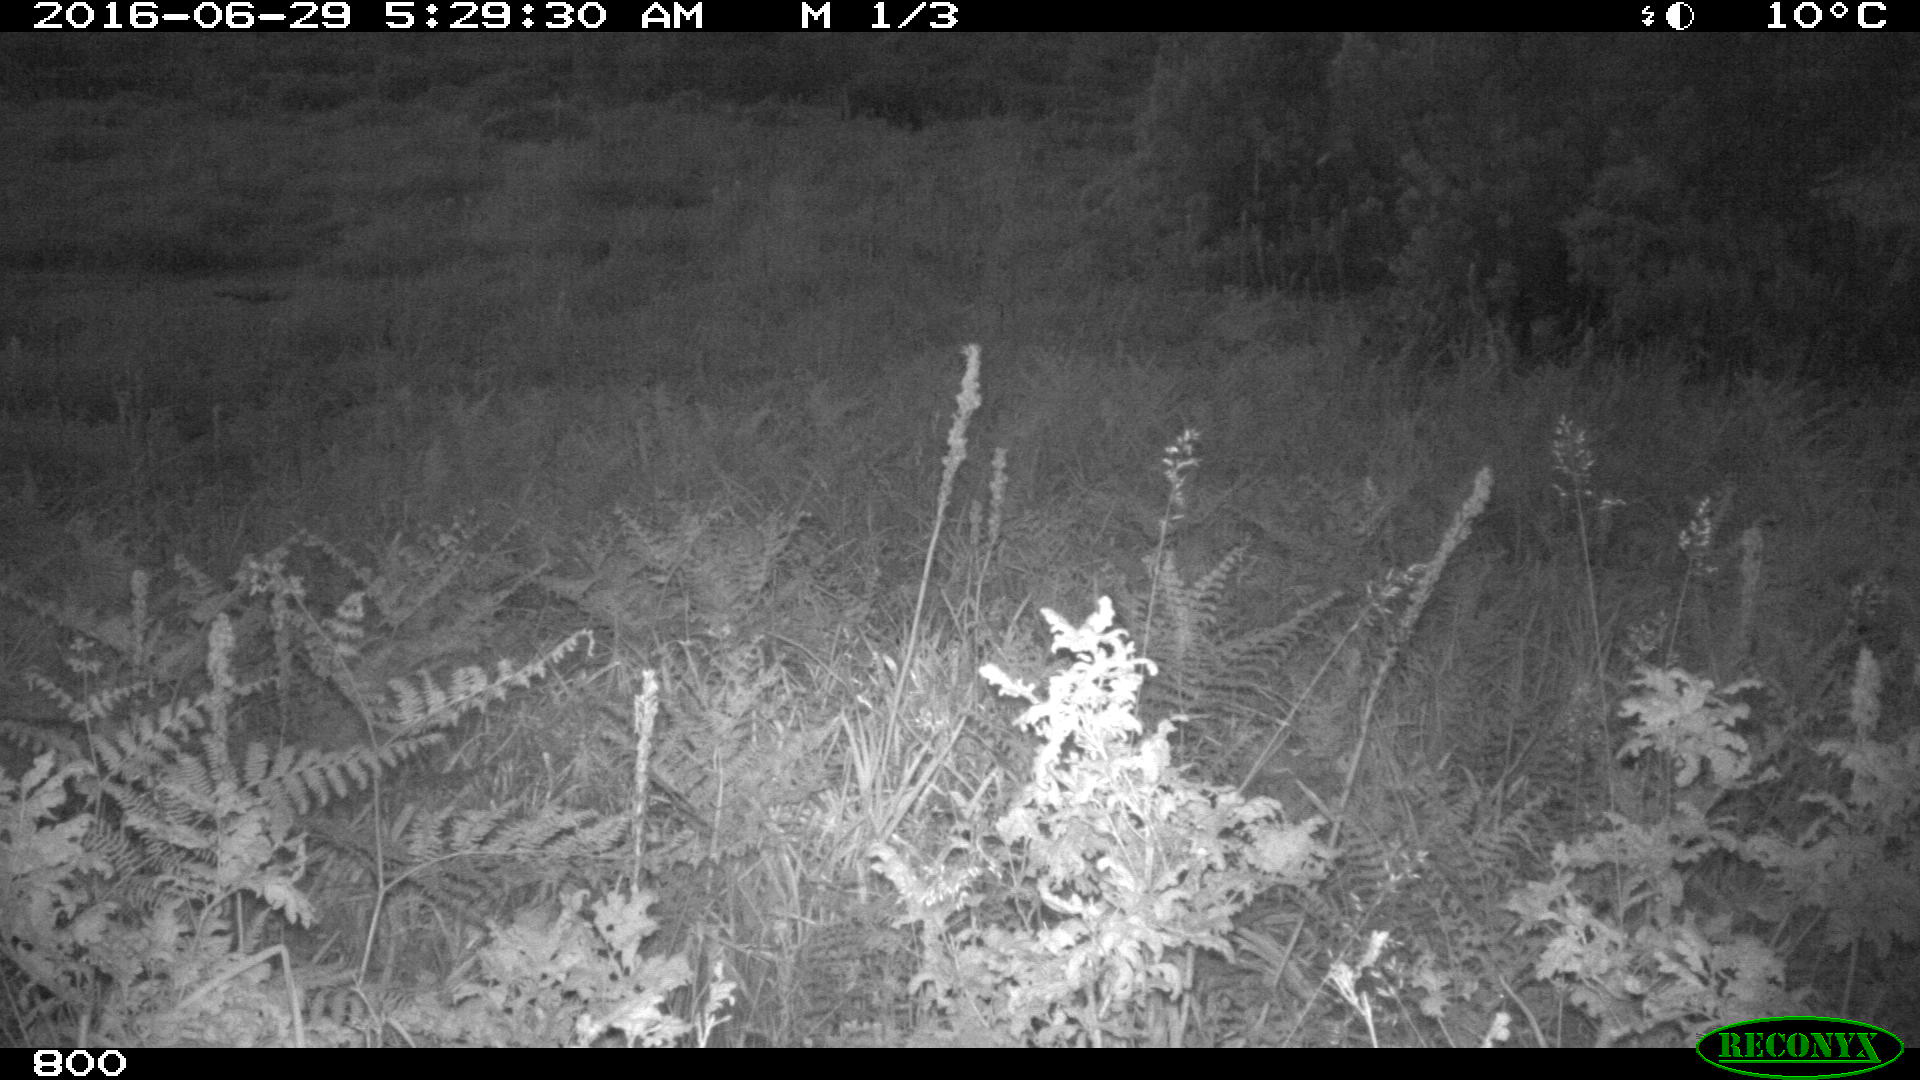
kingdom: Animalia
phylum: Chordata
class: Mammalia
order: Artiodactyla
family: Bovidae
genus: Bos
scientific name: Bos taurus
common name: Domesticated cattle
